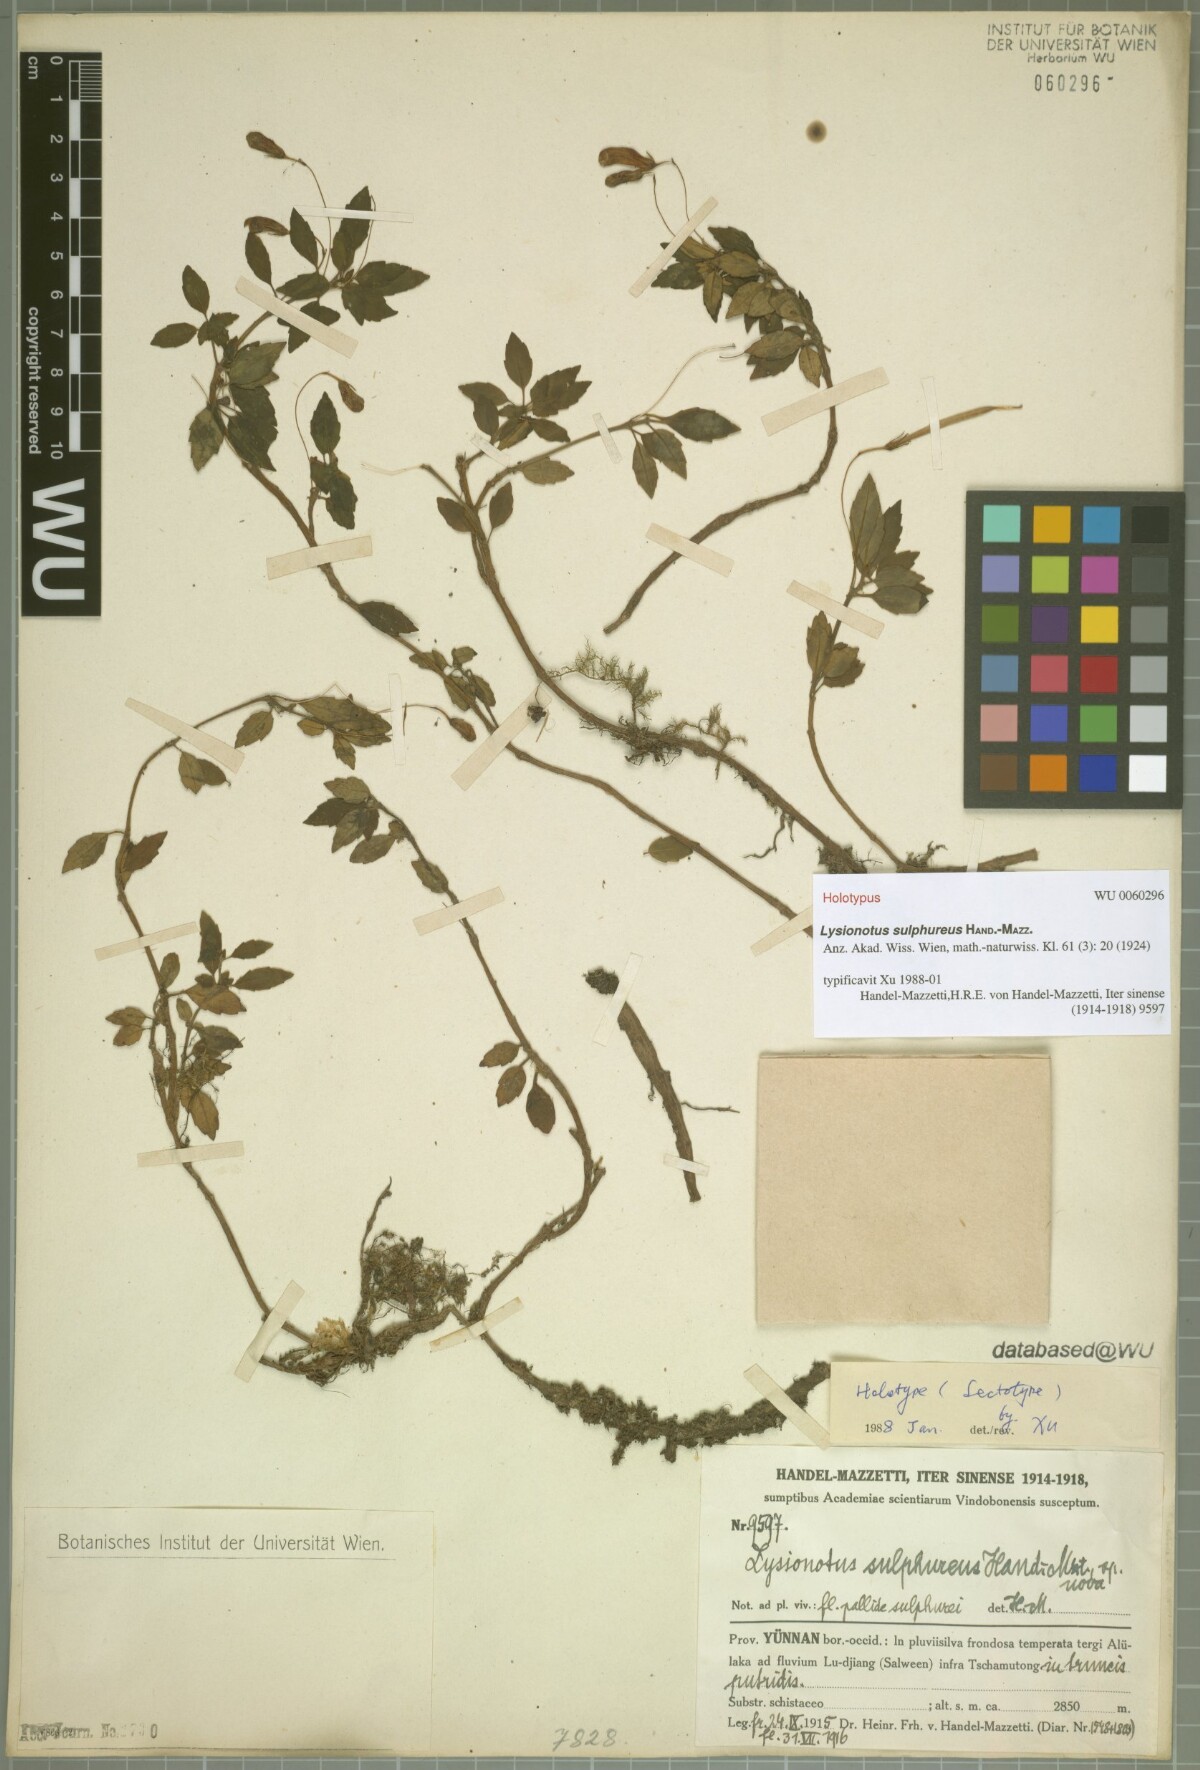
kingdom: Plantae
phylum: Tracheophyta
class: Magnoliopsida
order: Lamiales
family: Gesneriaceae
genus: Lysionotus
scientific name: Lysionotus sulphureus
